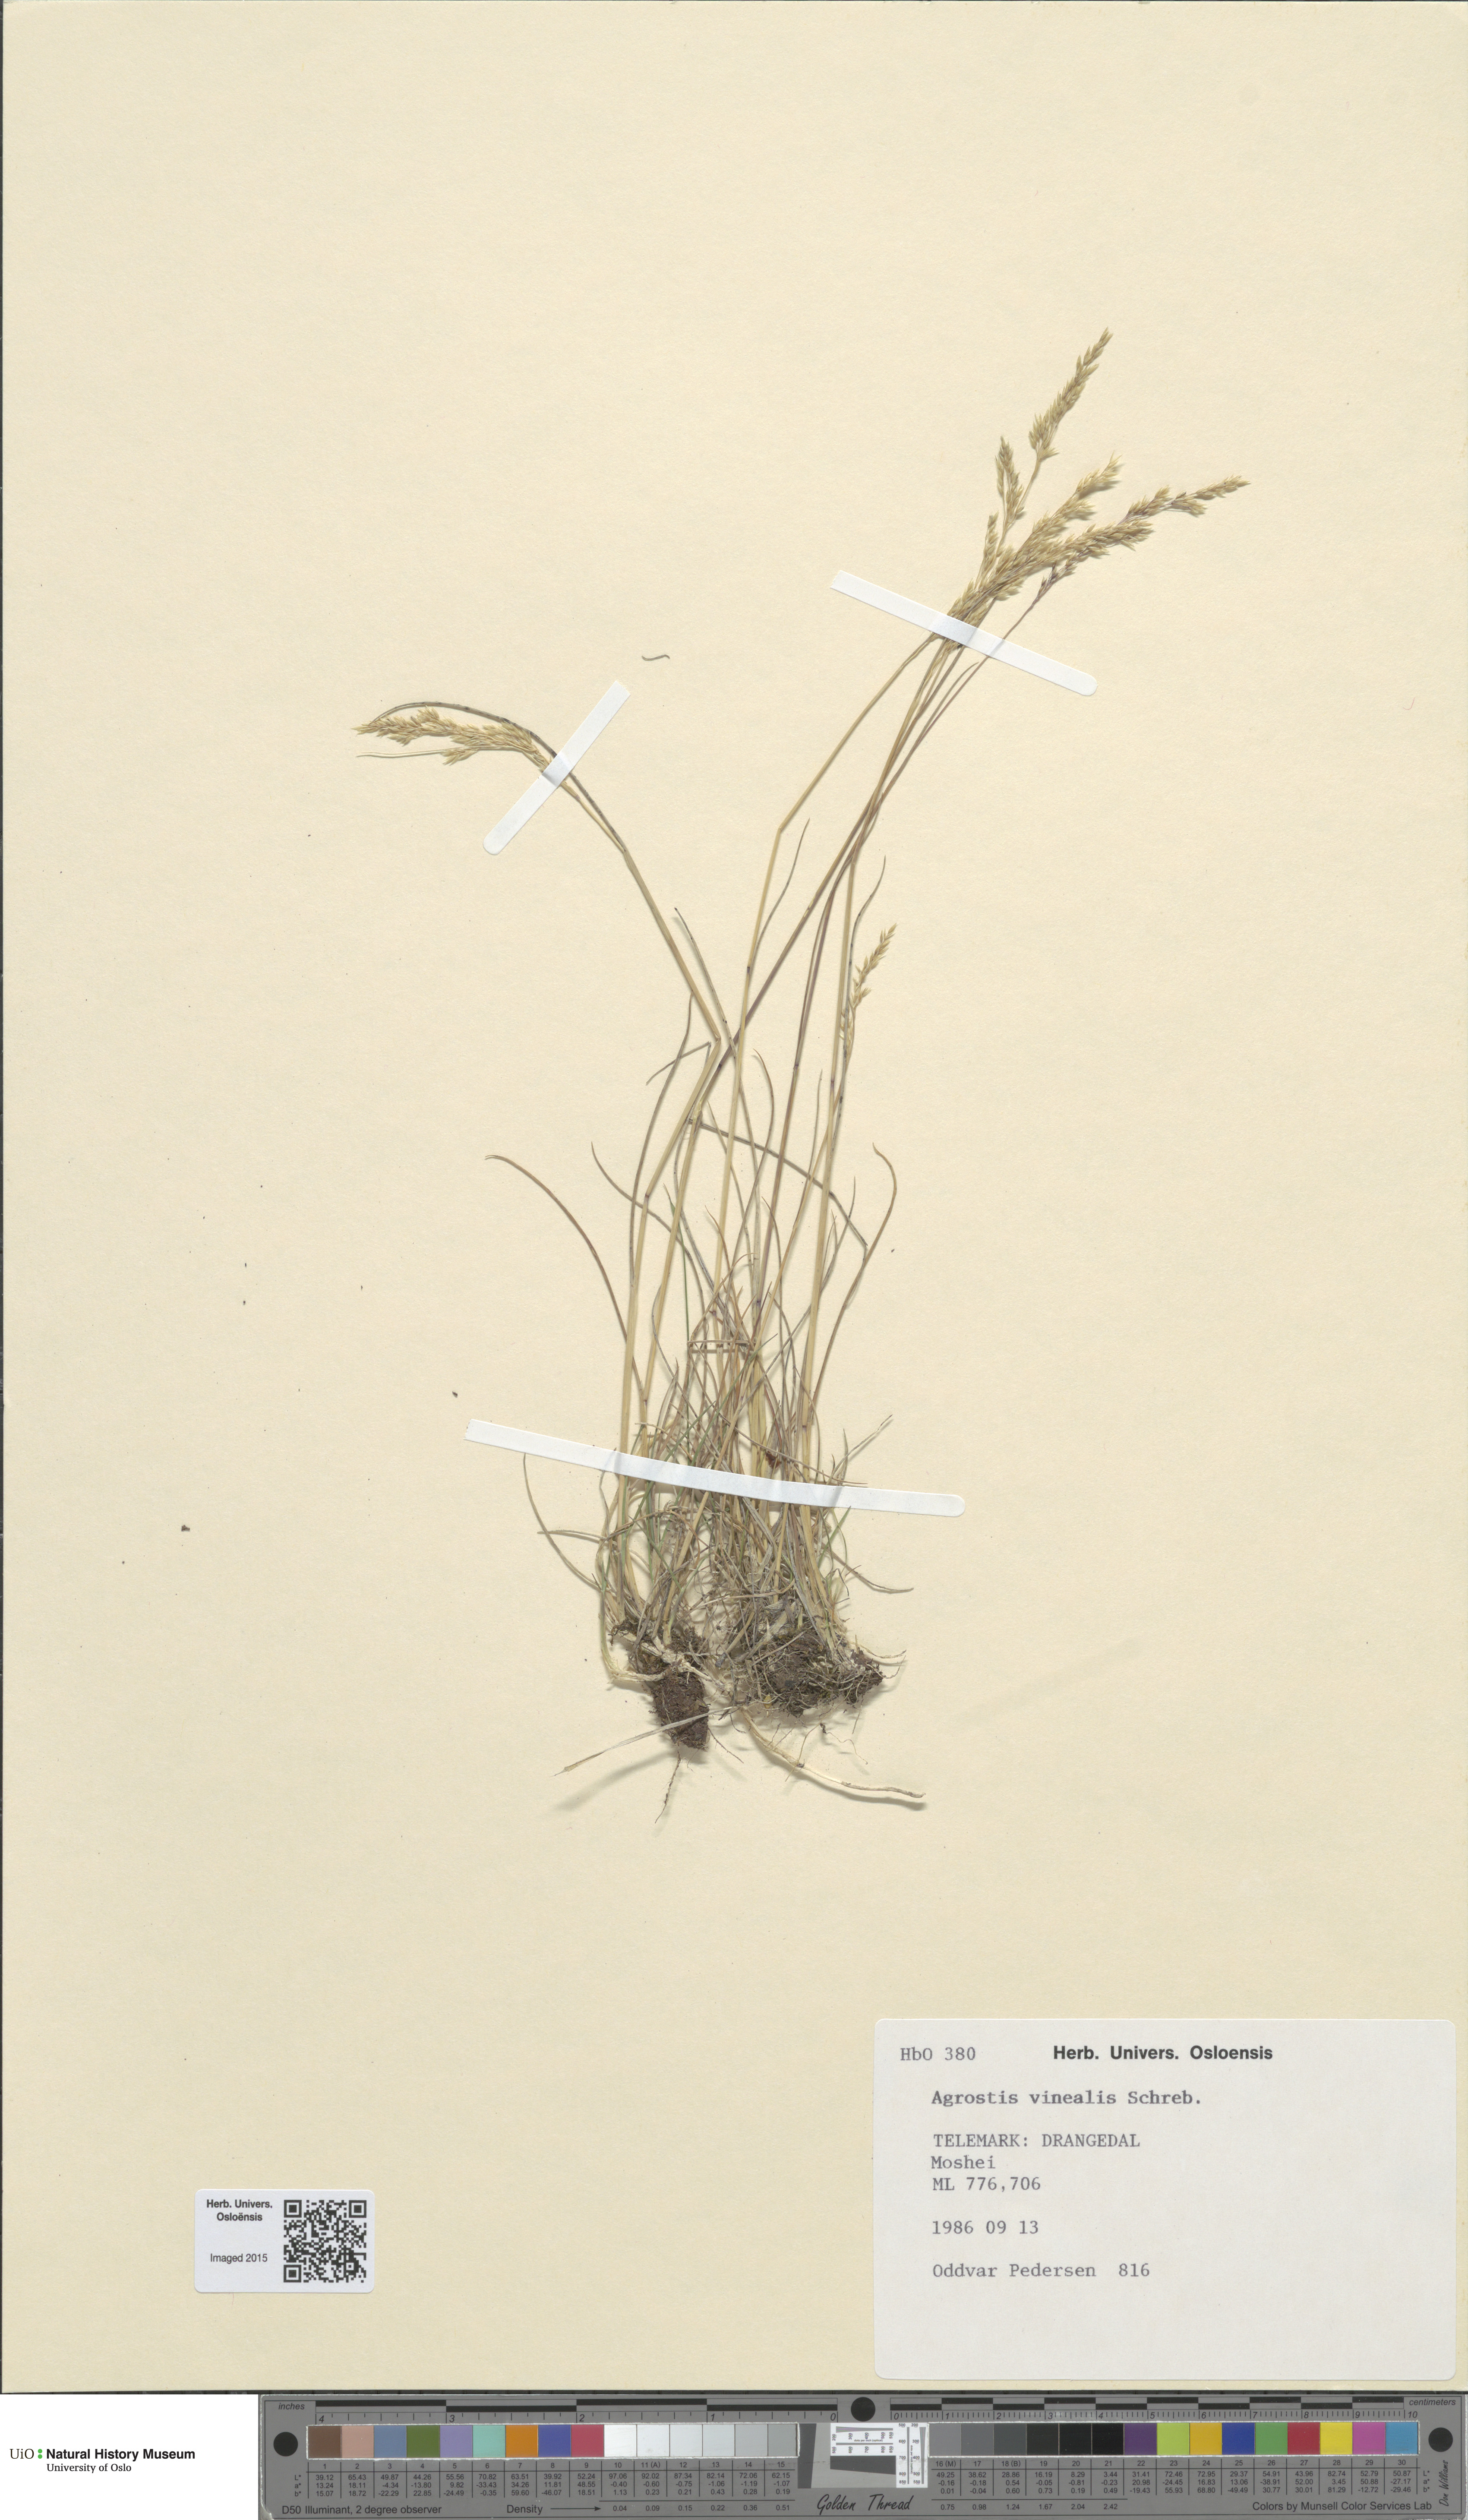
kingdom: Plantae
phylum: Tracheophyta
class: Liliopsida
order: Poales
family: Poaceae
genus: Agrostis
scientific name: Agrostis vinealis
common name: Brown bent
